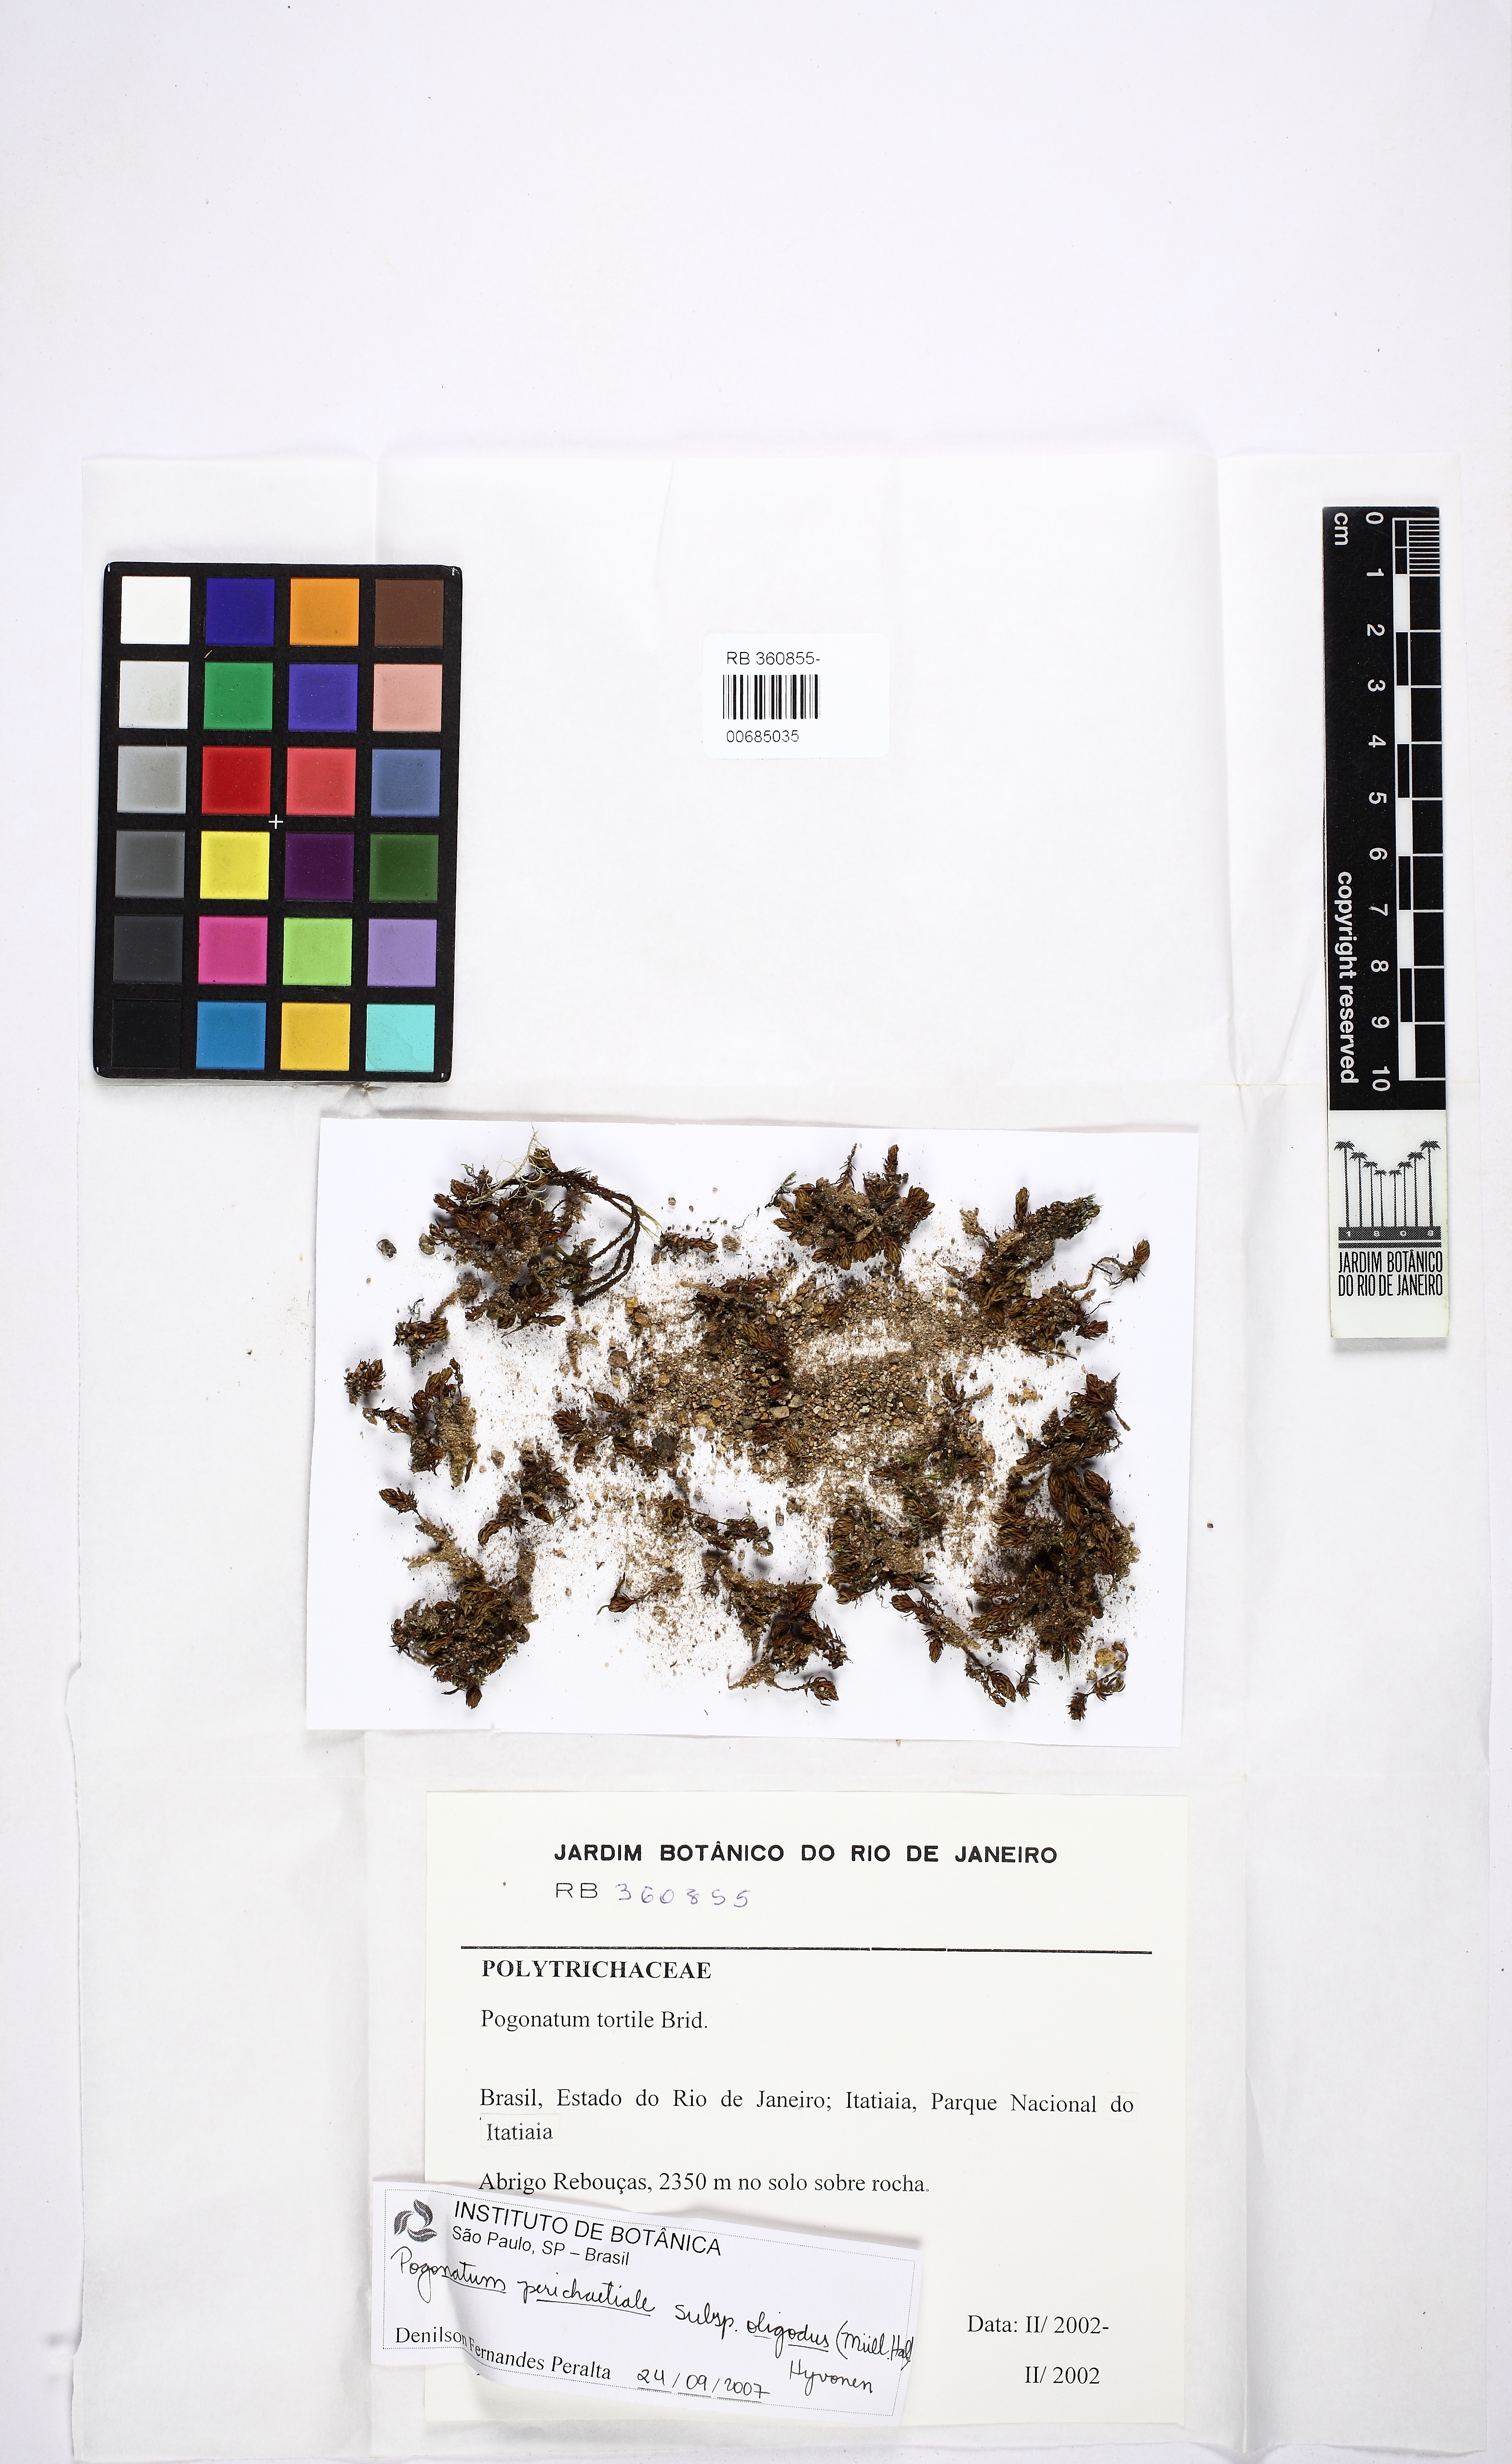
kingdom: Plantae
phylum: Bryophyta
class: Polytrichopsida
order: Polytrichales
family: Polytrichaceae
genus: Pogonatum
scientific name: Pogonatum jamesonii
